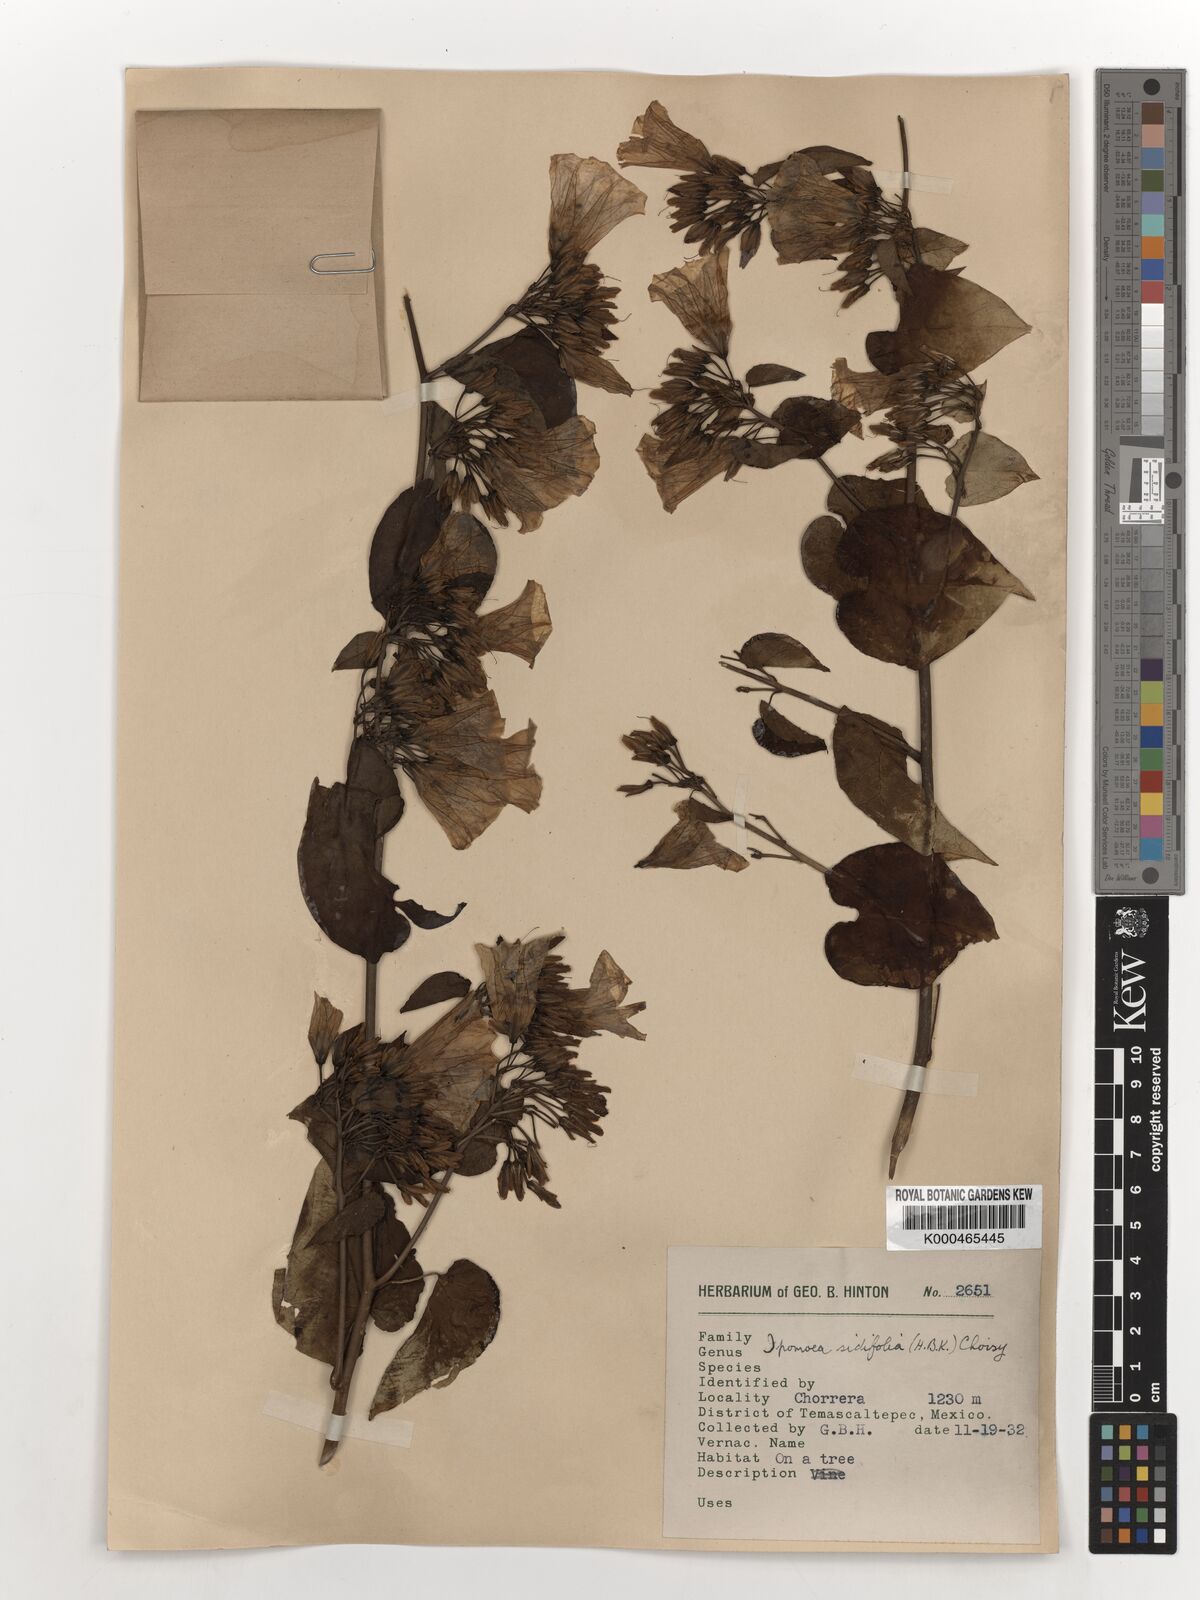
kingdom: Plantae
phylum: Tracheophyta
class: Magnoliopsida
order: Solanales
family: Convolvulaceae
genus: Ipomoea
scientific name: Ipomoea corymbosa
